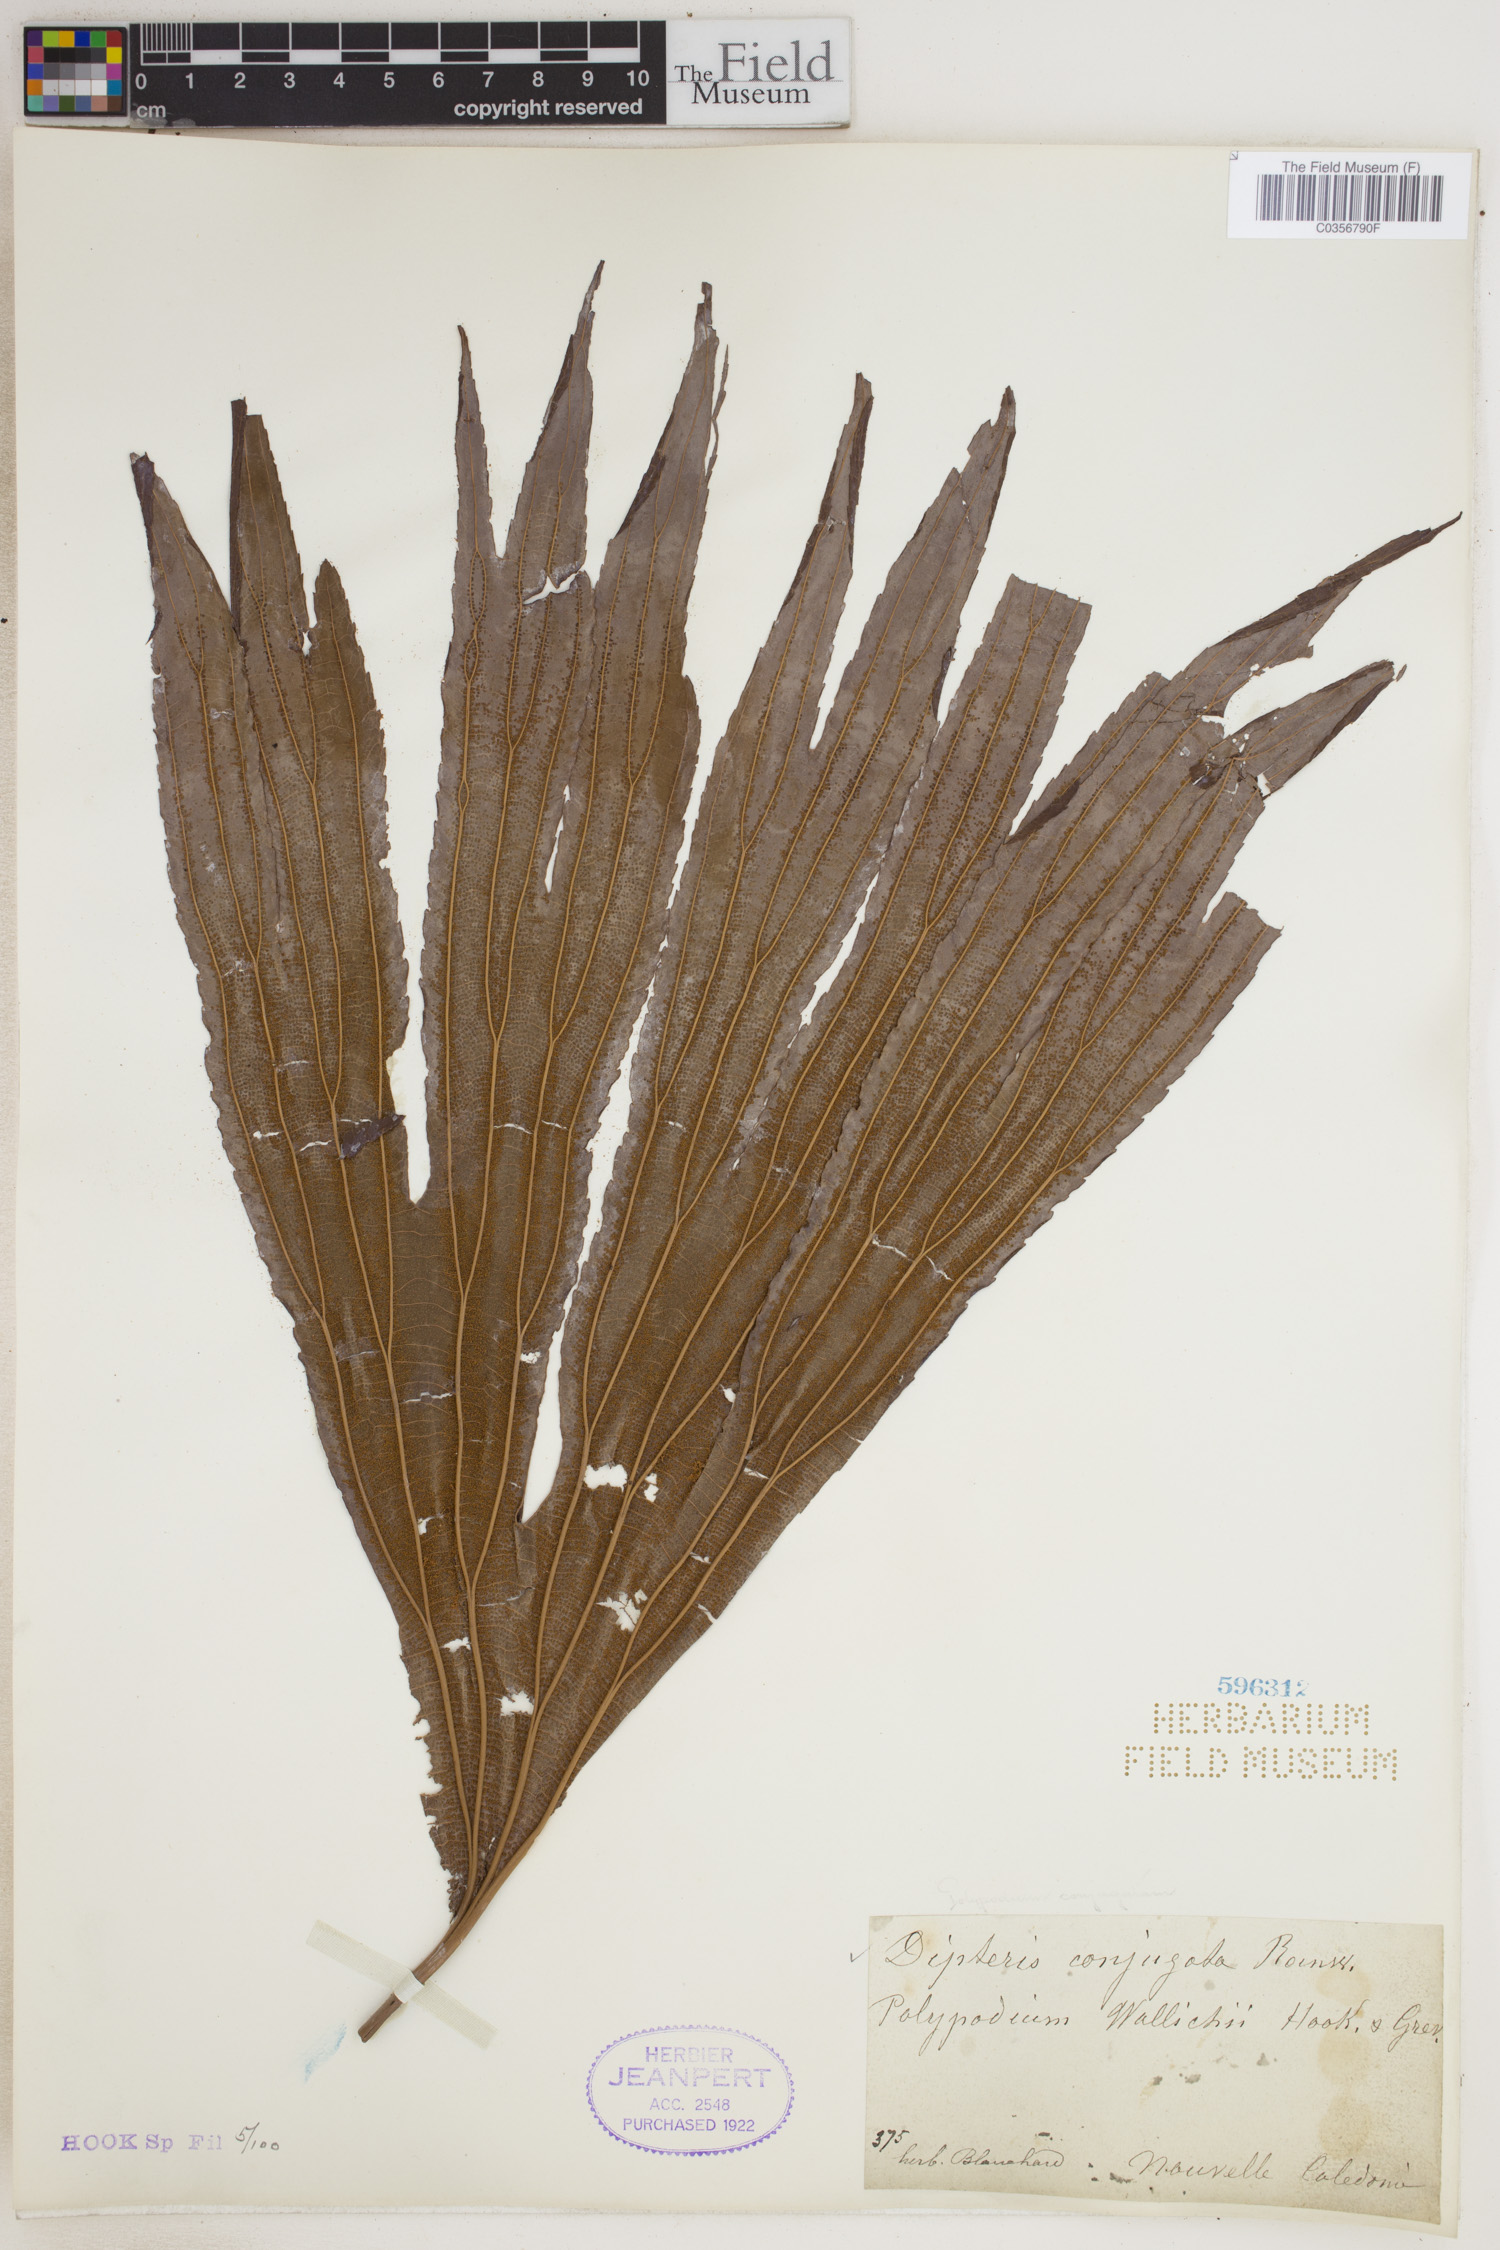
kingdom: Plantae
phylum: Tracheophyta
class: Polypodiopsida
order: Gleicheniales
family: Dipteridaceae
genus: Dipteris
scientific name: Dipteris conjugata
